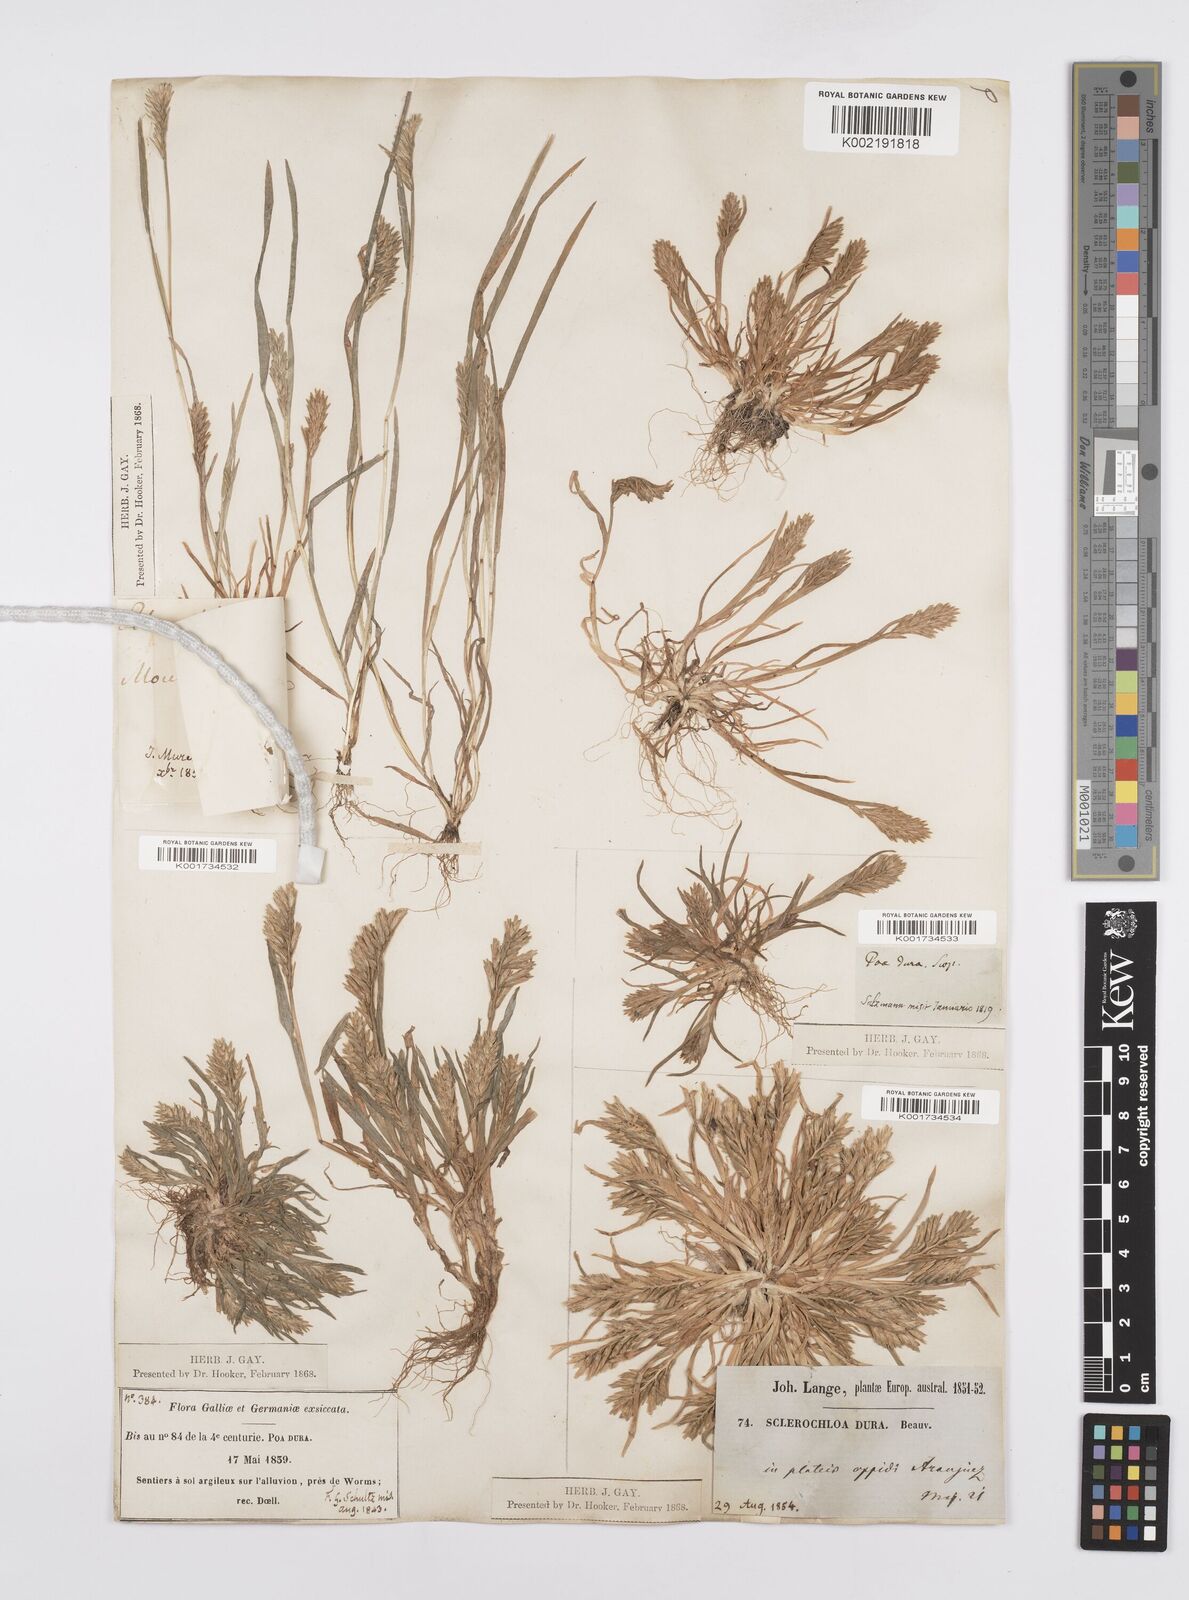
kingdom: Plantae
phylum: Tracheophyta
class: Liliopsida
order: Poales
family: Poaceae
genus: Sclerochloa
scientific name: Sclerochloa dura
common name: Common hardgrass
